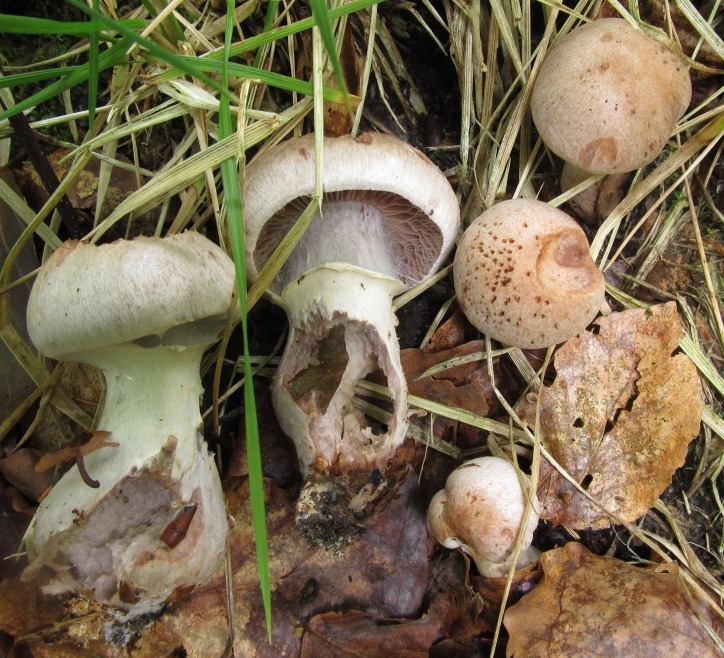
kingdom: Fungi
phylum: Basidiomycota
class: Agaricomycetes
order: Agaricales
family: Cortinariaceae
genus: Cortinarius
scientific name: Cortinarius torvus
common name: champignonagtig slørhat
